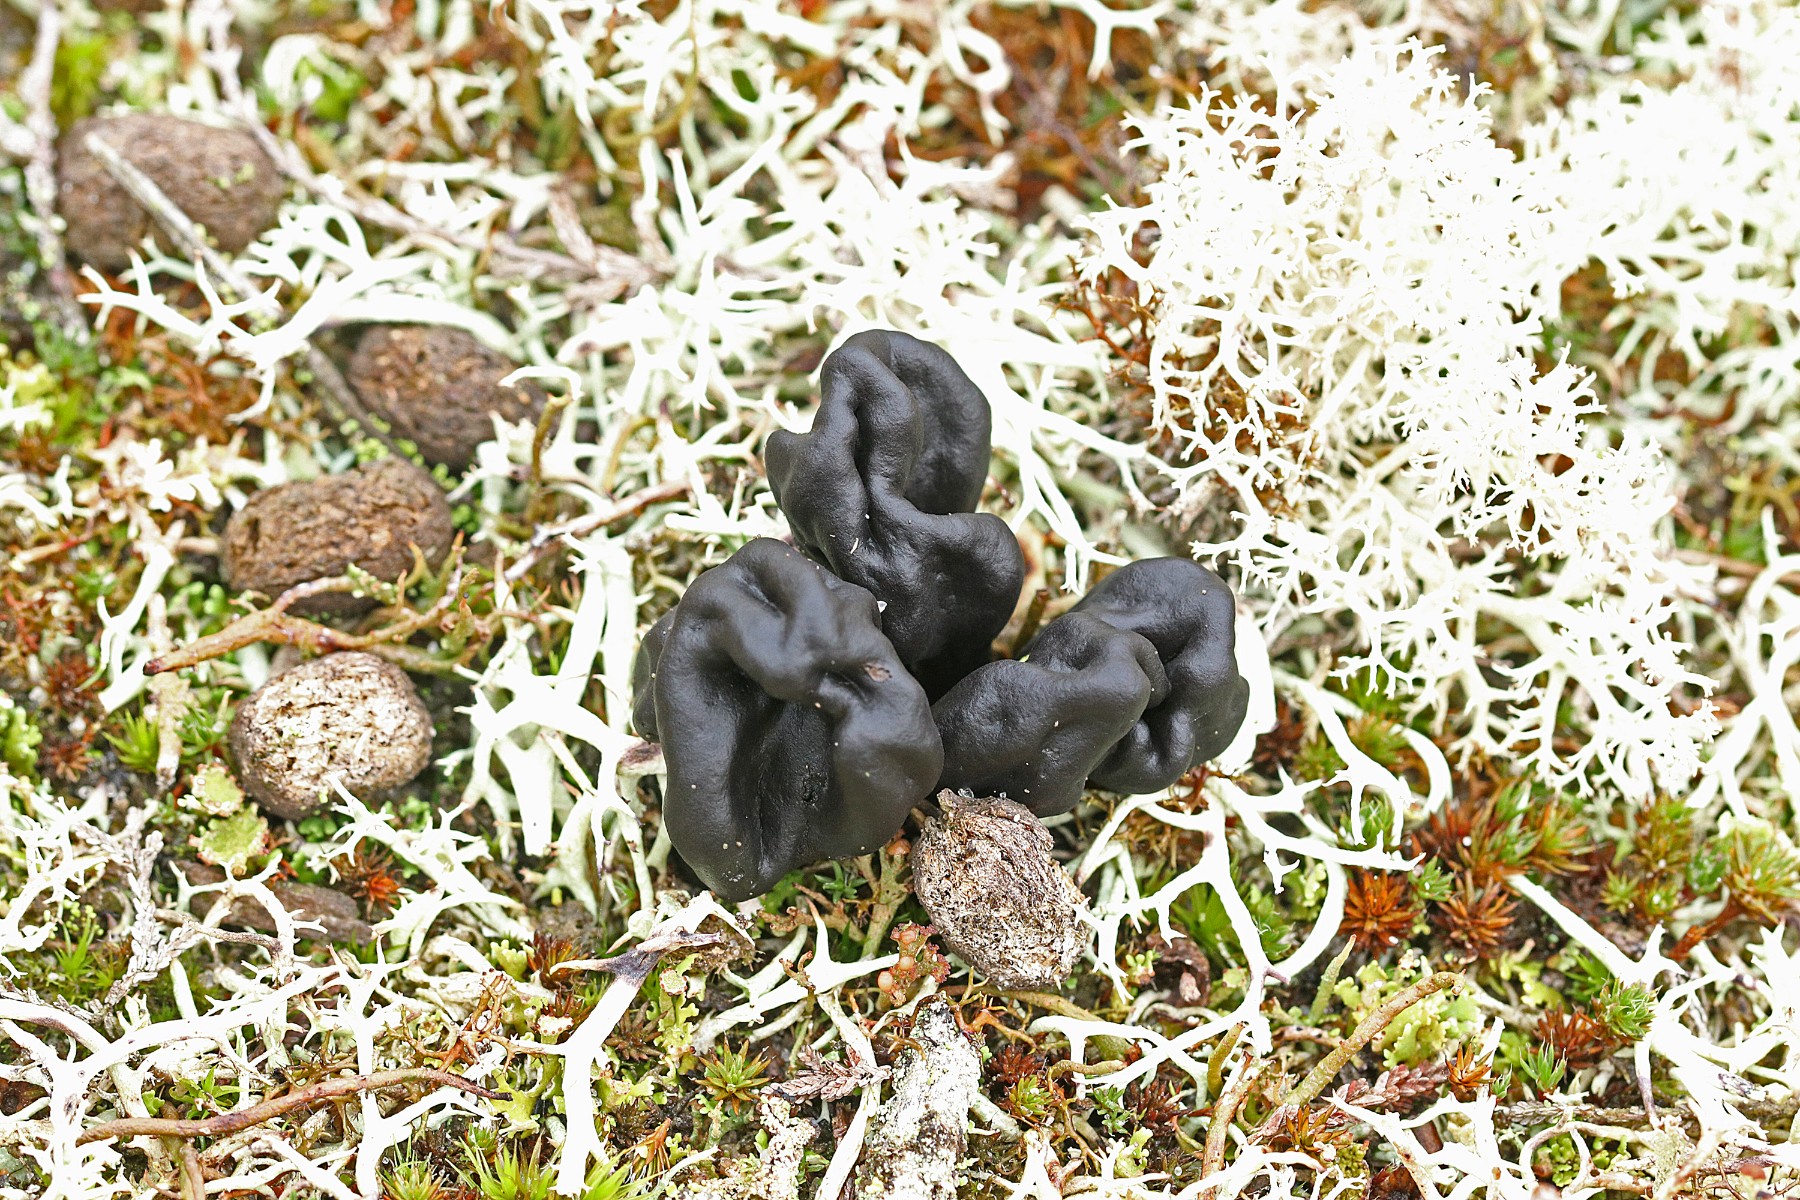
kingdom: Fungi
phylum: Ascomycota
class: Geoglossomycetes
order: Geoglossales
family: Geoglossaceae
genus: Sabuloglossum
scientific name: Sabuloglossum arenarium
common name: klit-jordtunge
